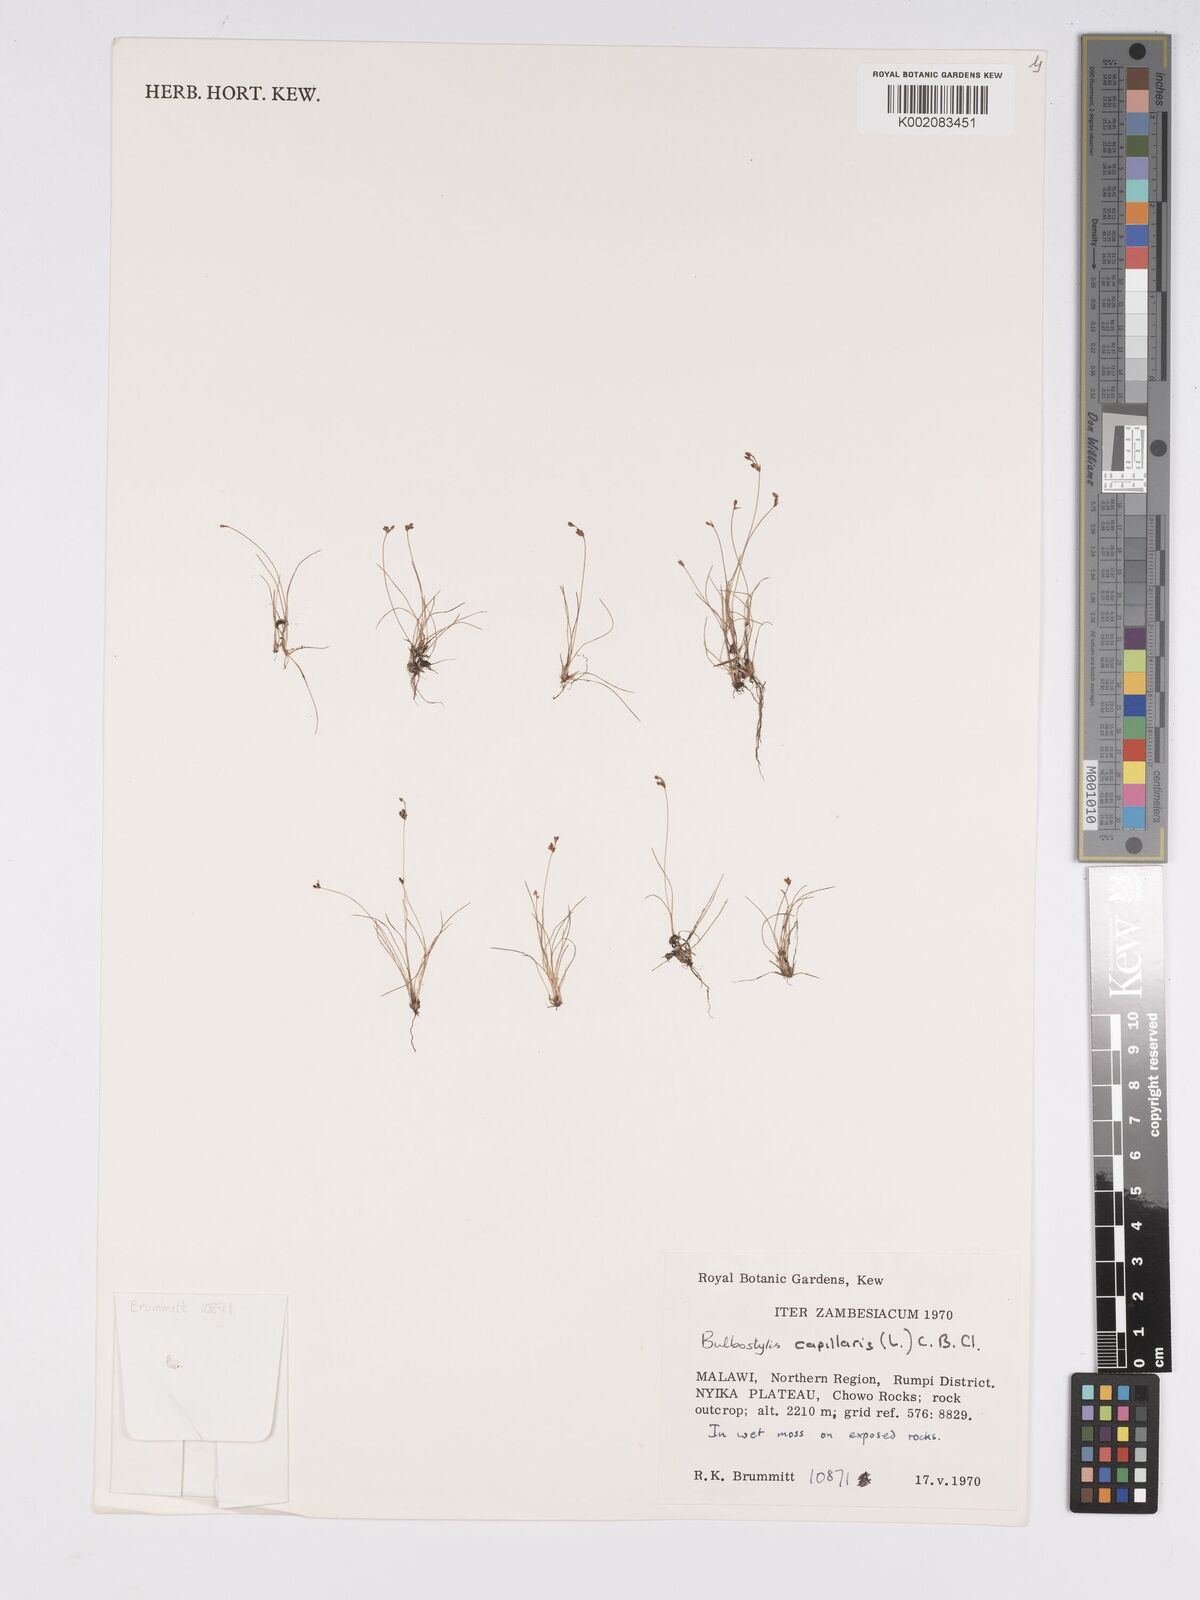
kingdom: Plantae
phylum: Tracheophyta
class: Liliopsida
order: Poales
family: Cyperaceae
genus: Bulbostylis
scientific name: Bulbostylis capillaris
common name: Densetuft hairsedge
